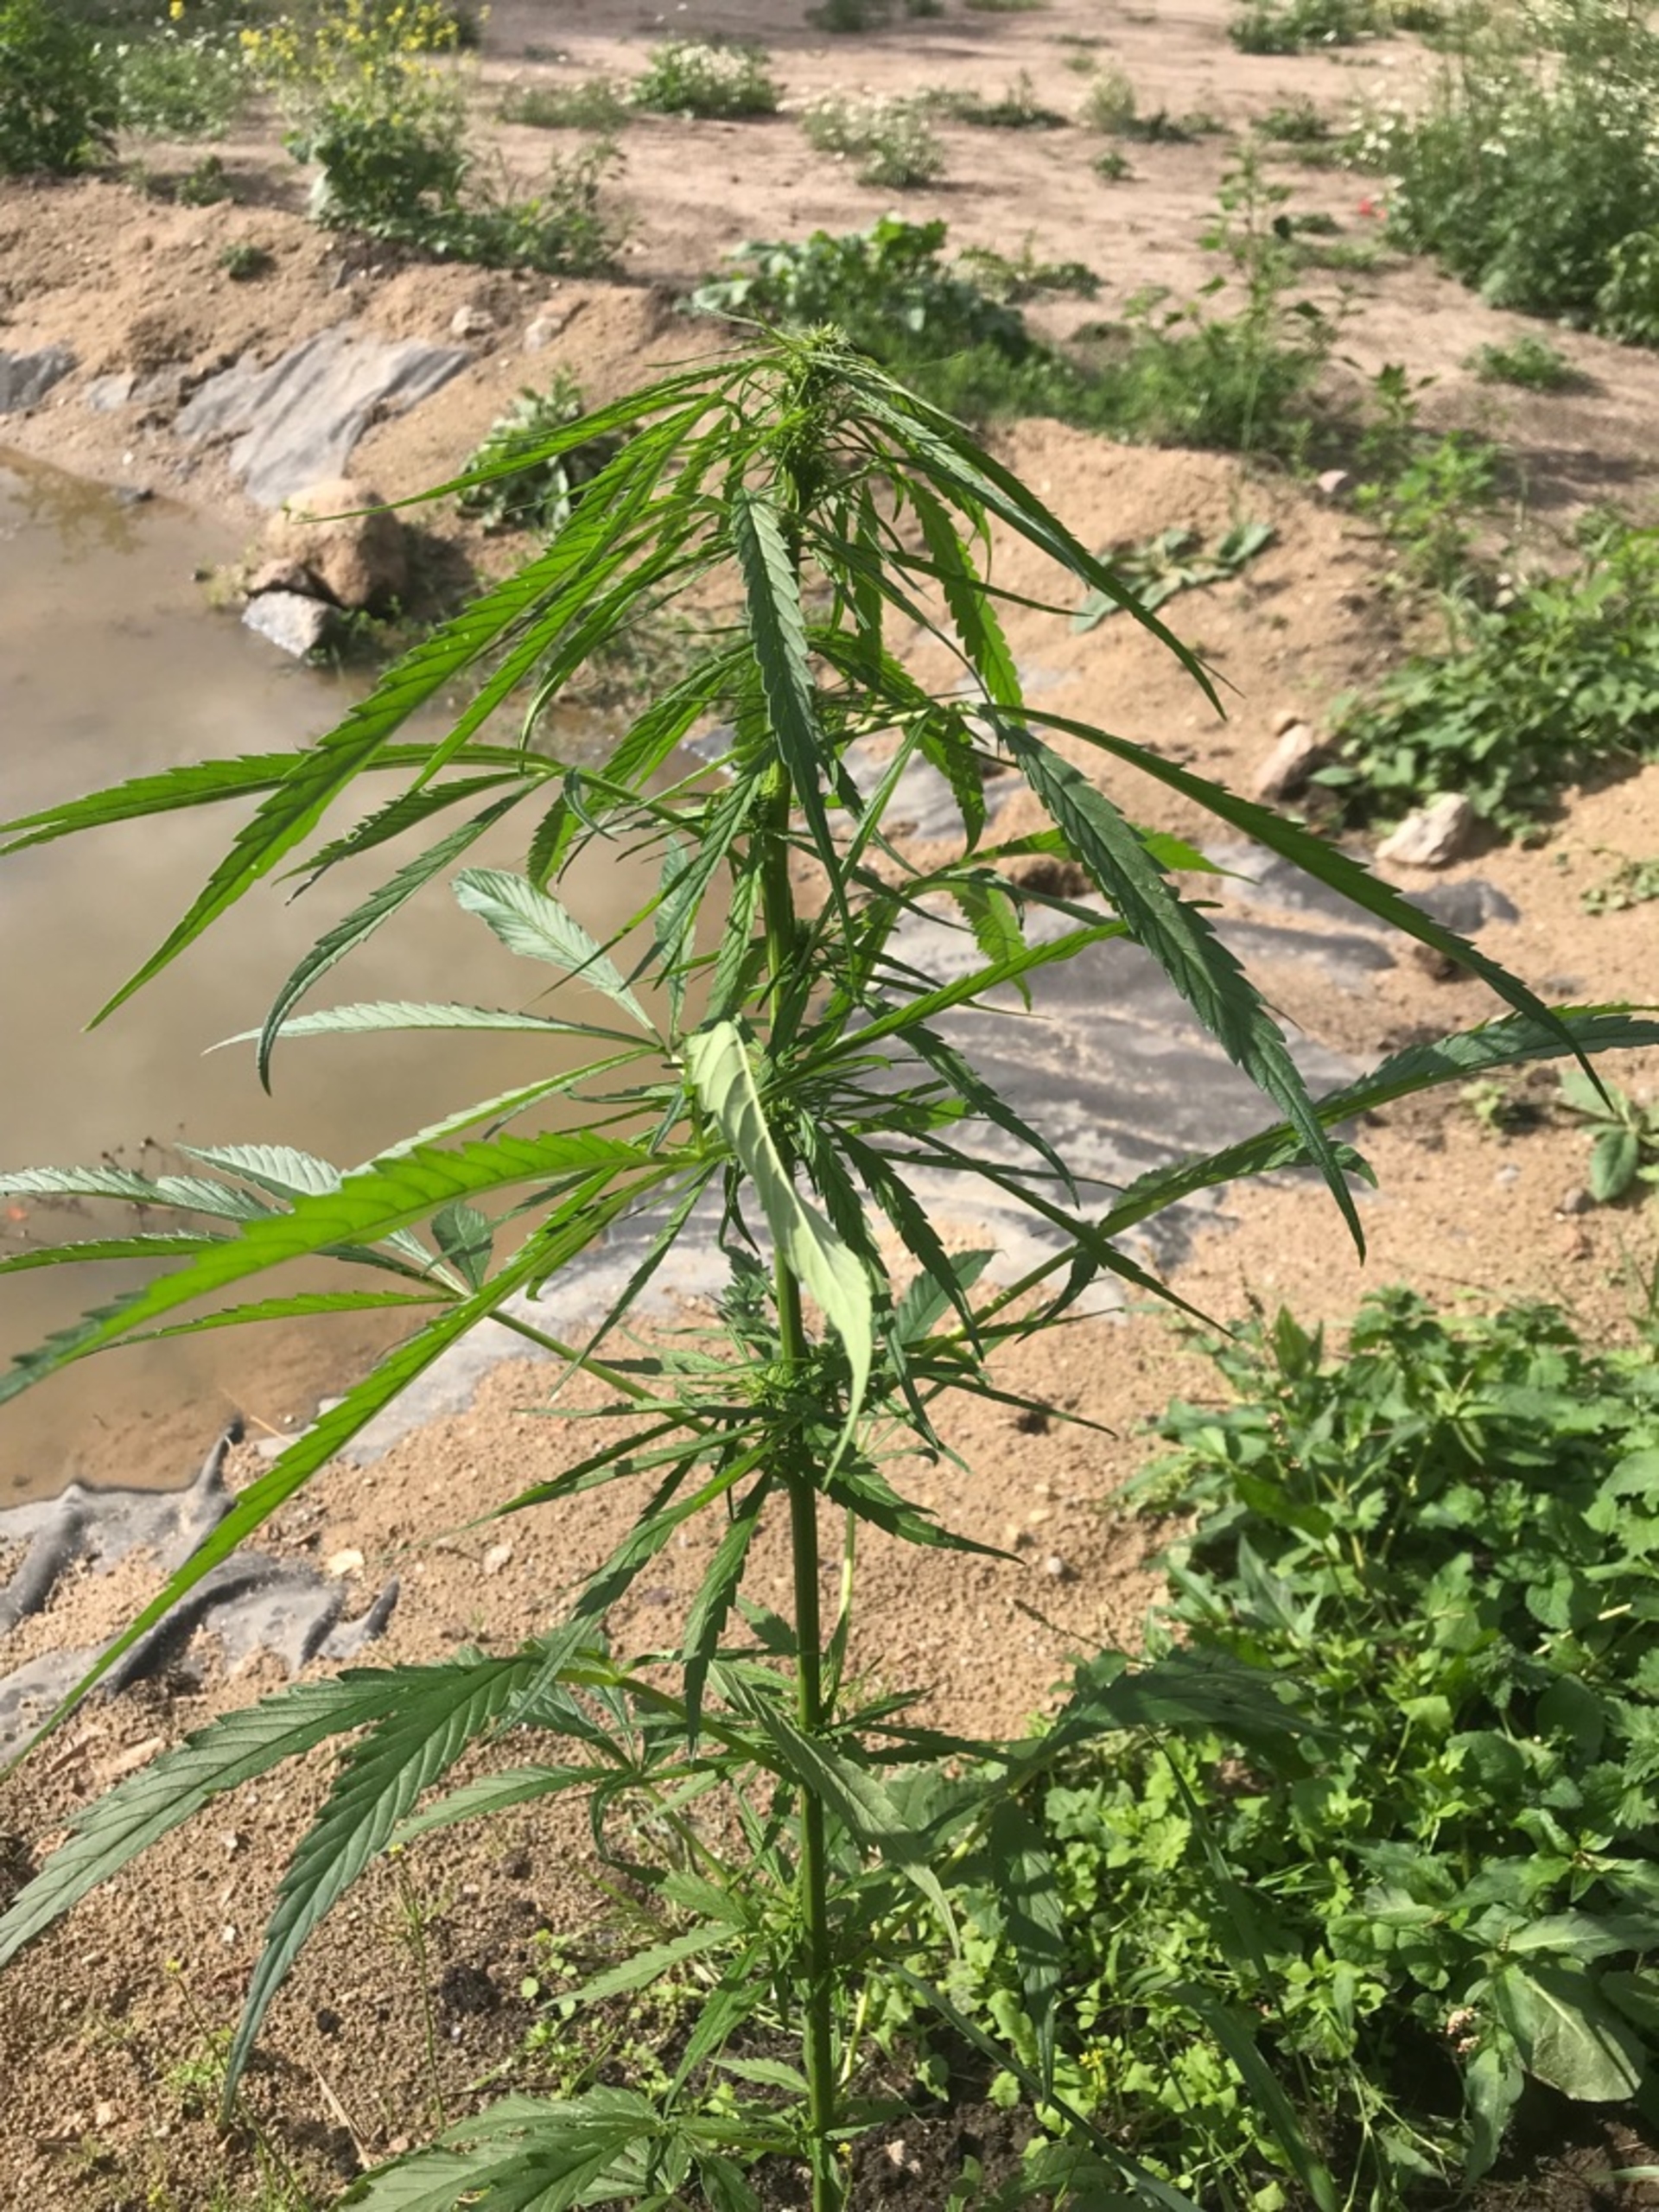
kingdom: Plantae
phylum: Tracheophyta
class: Magnoliopsida
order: Rosales
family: Cannabaceae
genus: Cannabis
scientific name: Cannabis sativa
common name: Hamp
